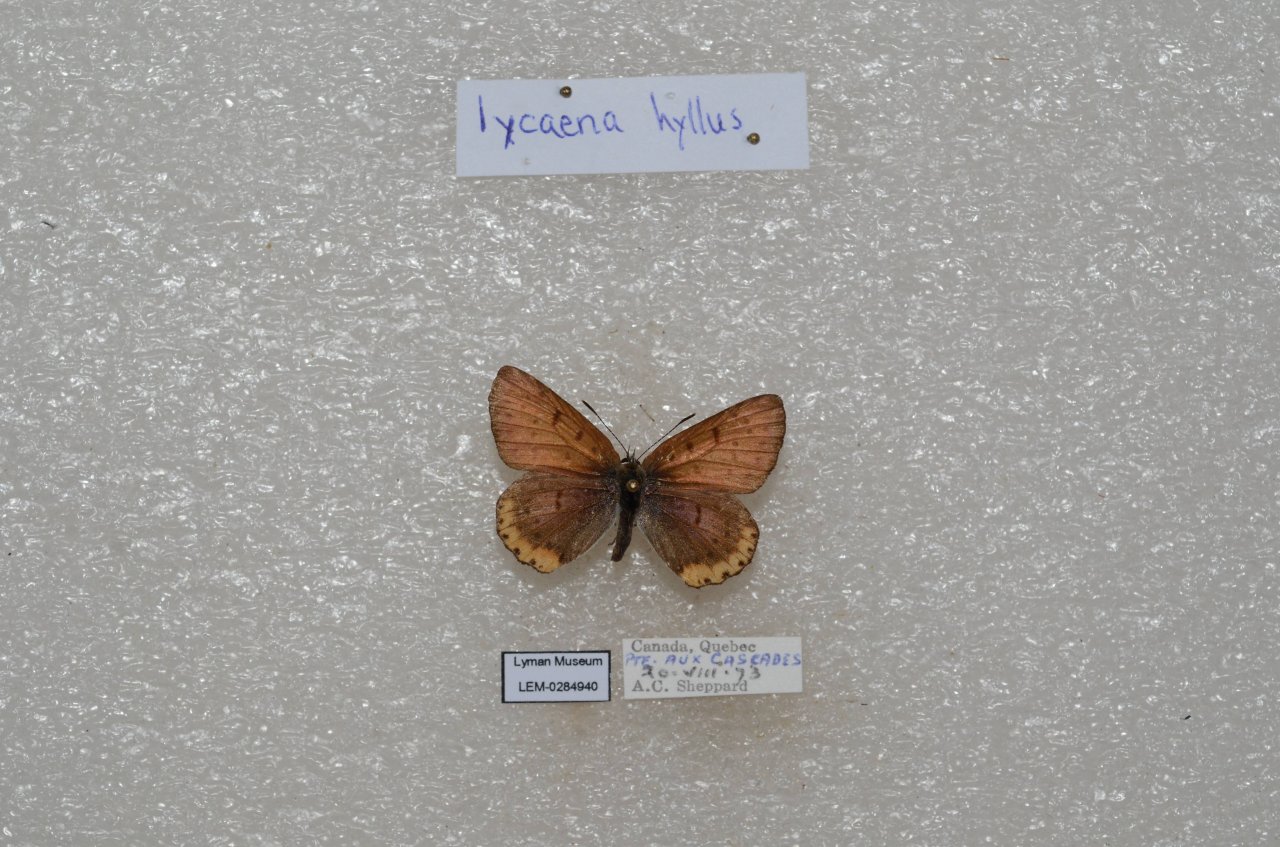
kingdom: Animalia
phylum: Arthropoda
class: Insecta
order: Lepidoptera
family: Sesiidae
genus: Sesia
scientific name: Sesia Lycaena hyllus
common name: Bronze Copper
